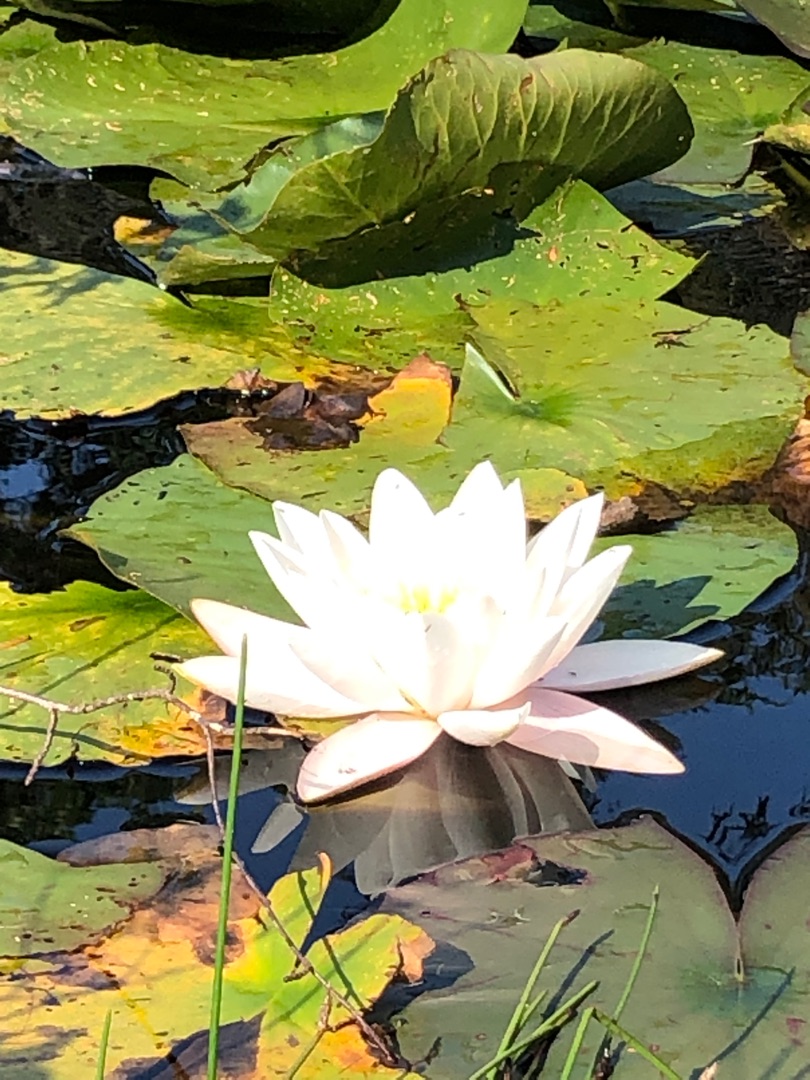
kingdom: Plantae
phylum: Tracheophyta
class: Magnoliopsida
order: Nymphaeales
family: Nymphaeaceae
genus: Nymphaea
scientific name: Nymphaea alba
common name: Hvid åkande
